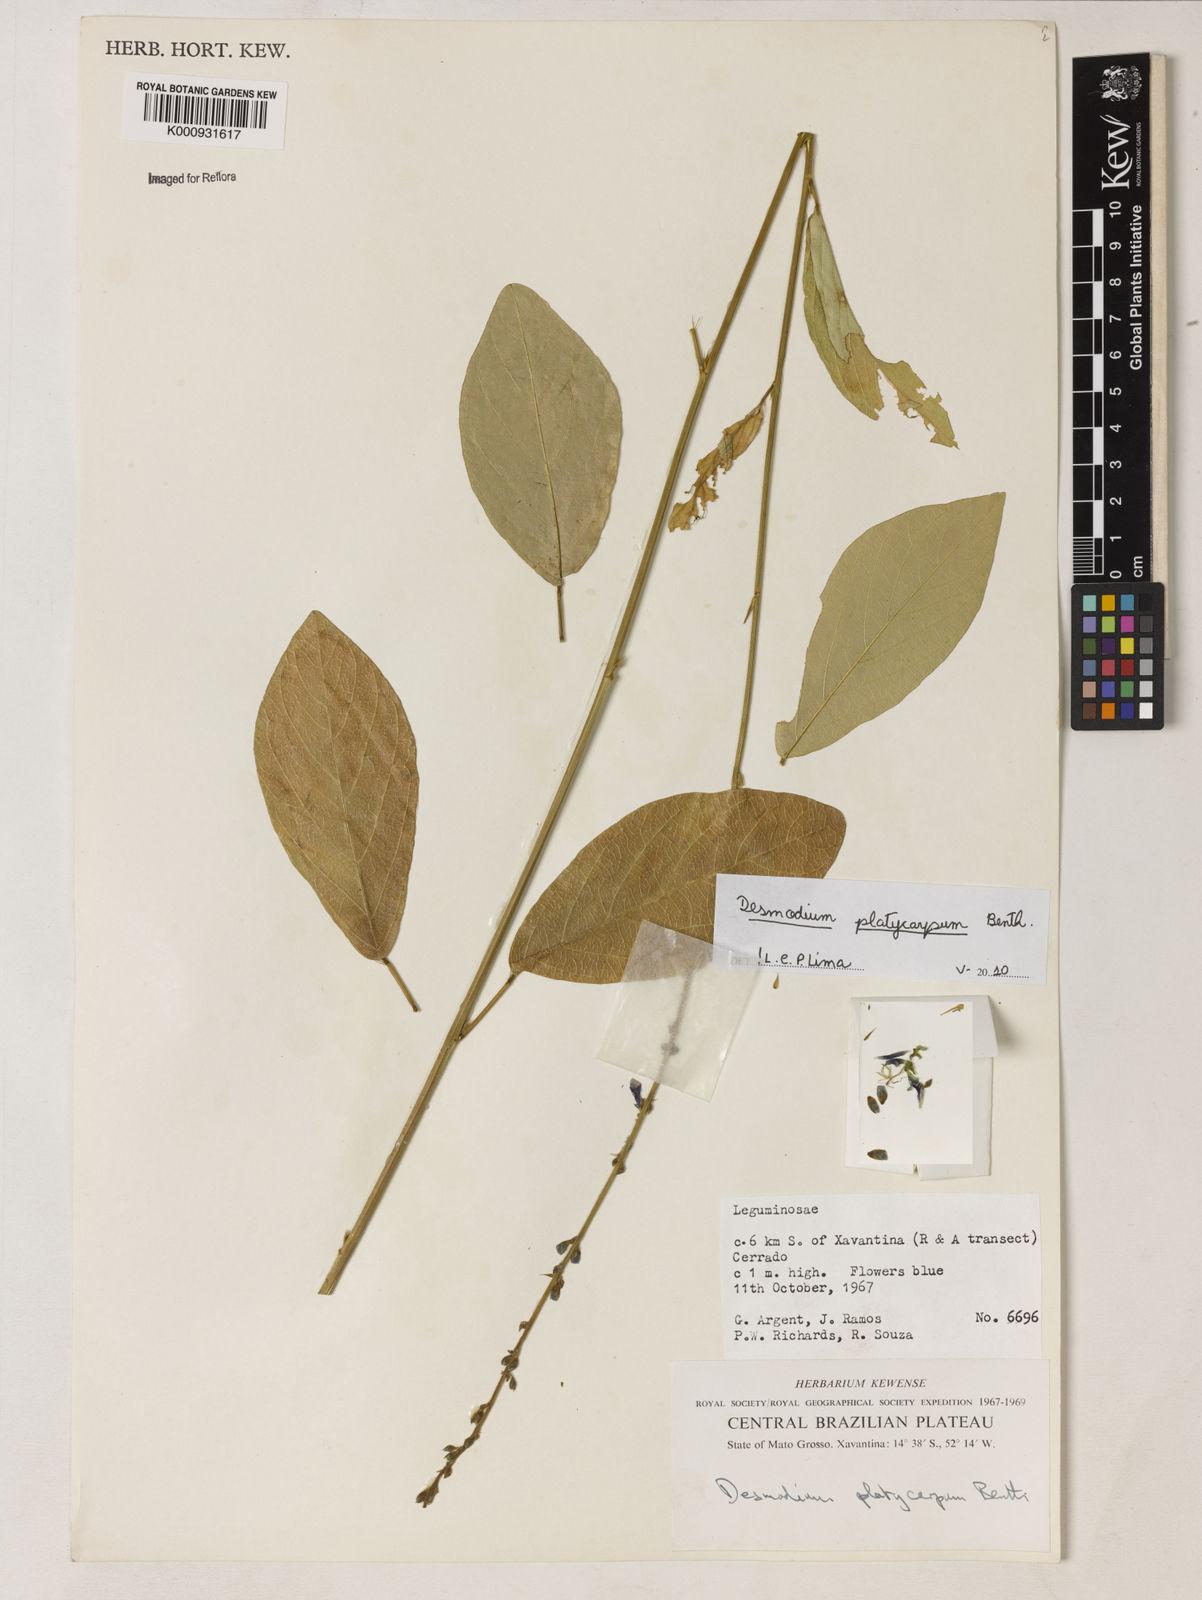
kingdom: Plantae
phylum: Tracheophyta
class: Magnoliopsida
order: Fabales
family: Fabaceae
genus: Desmodium
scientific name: Desmodium platycarpum
